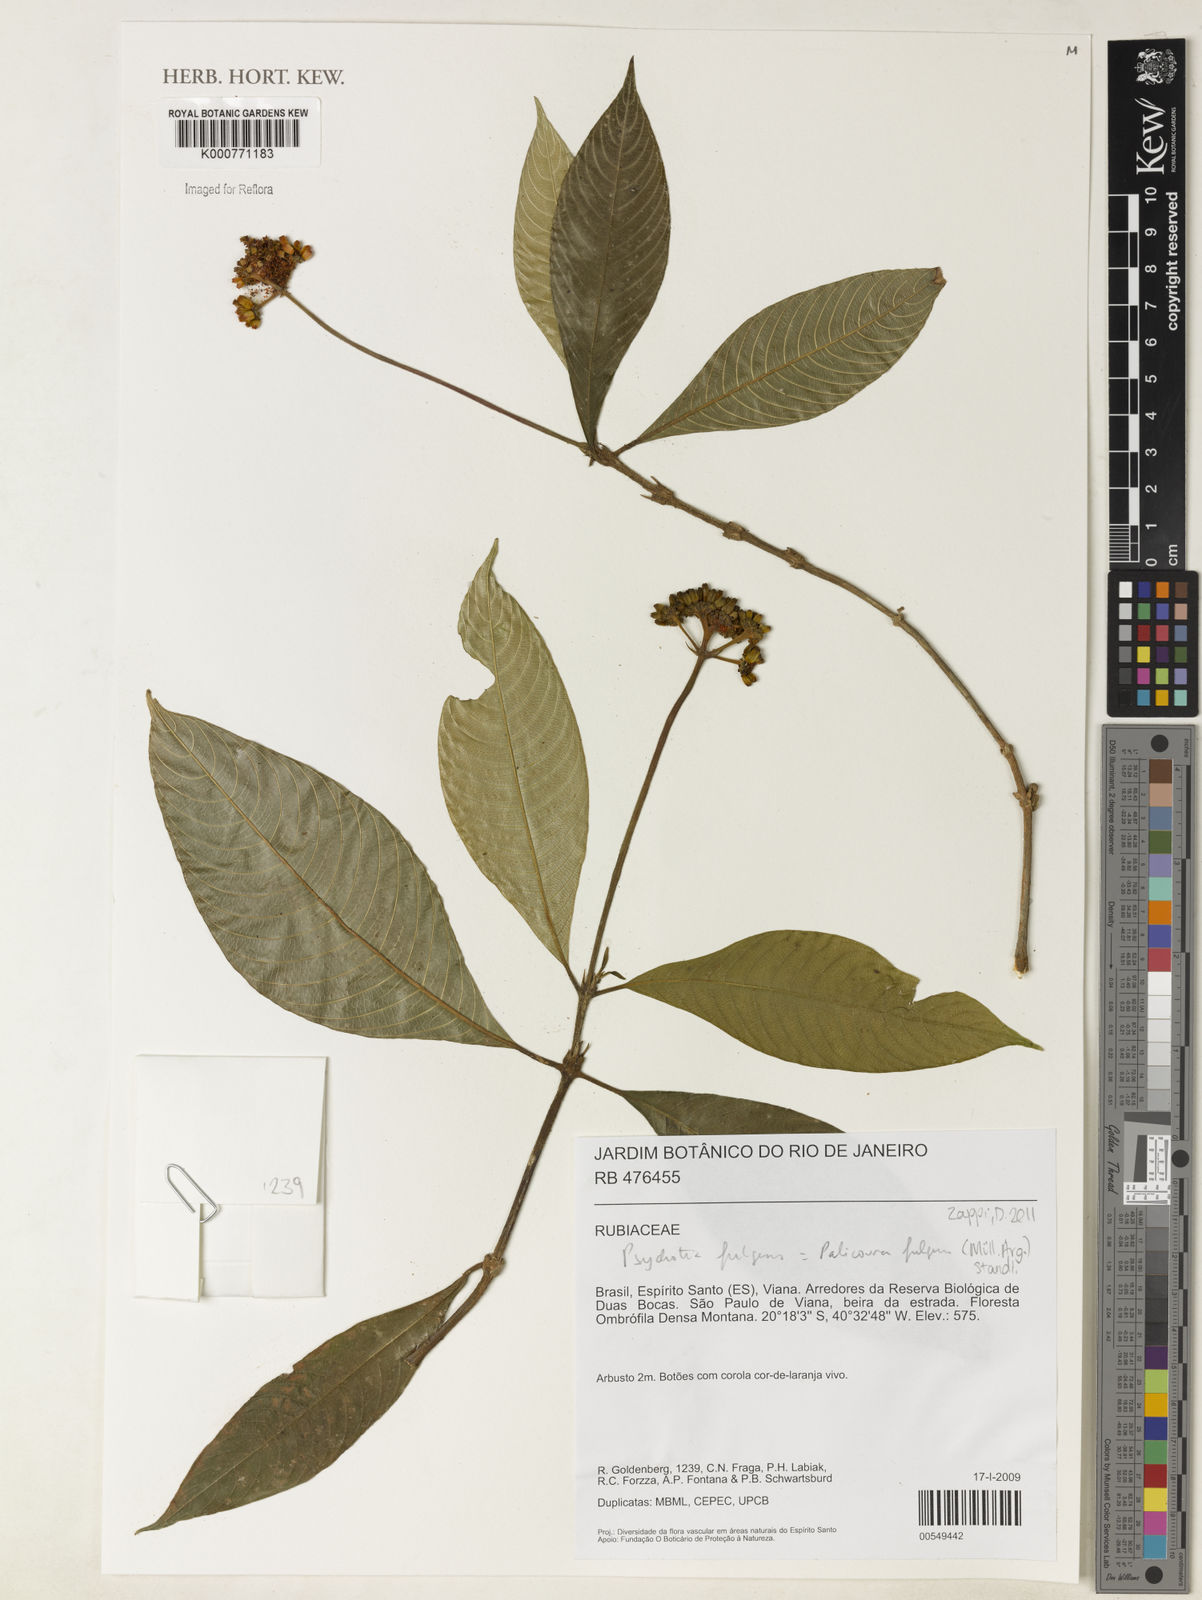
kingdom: Plantae
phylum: Tracheophyta
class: Magnoliopsida
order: Gentianales
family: Rubiaceae
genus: Palicourea
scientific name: Palicourea
